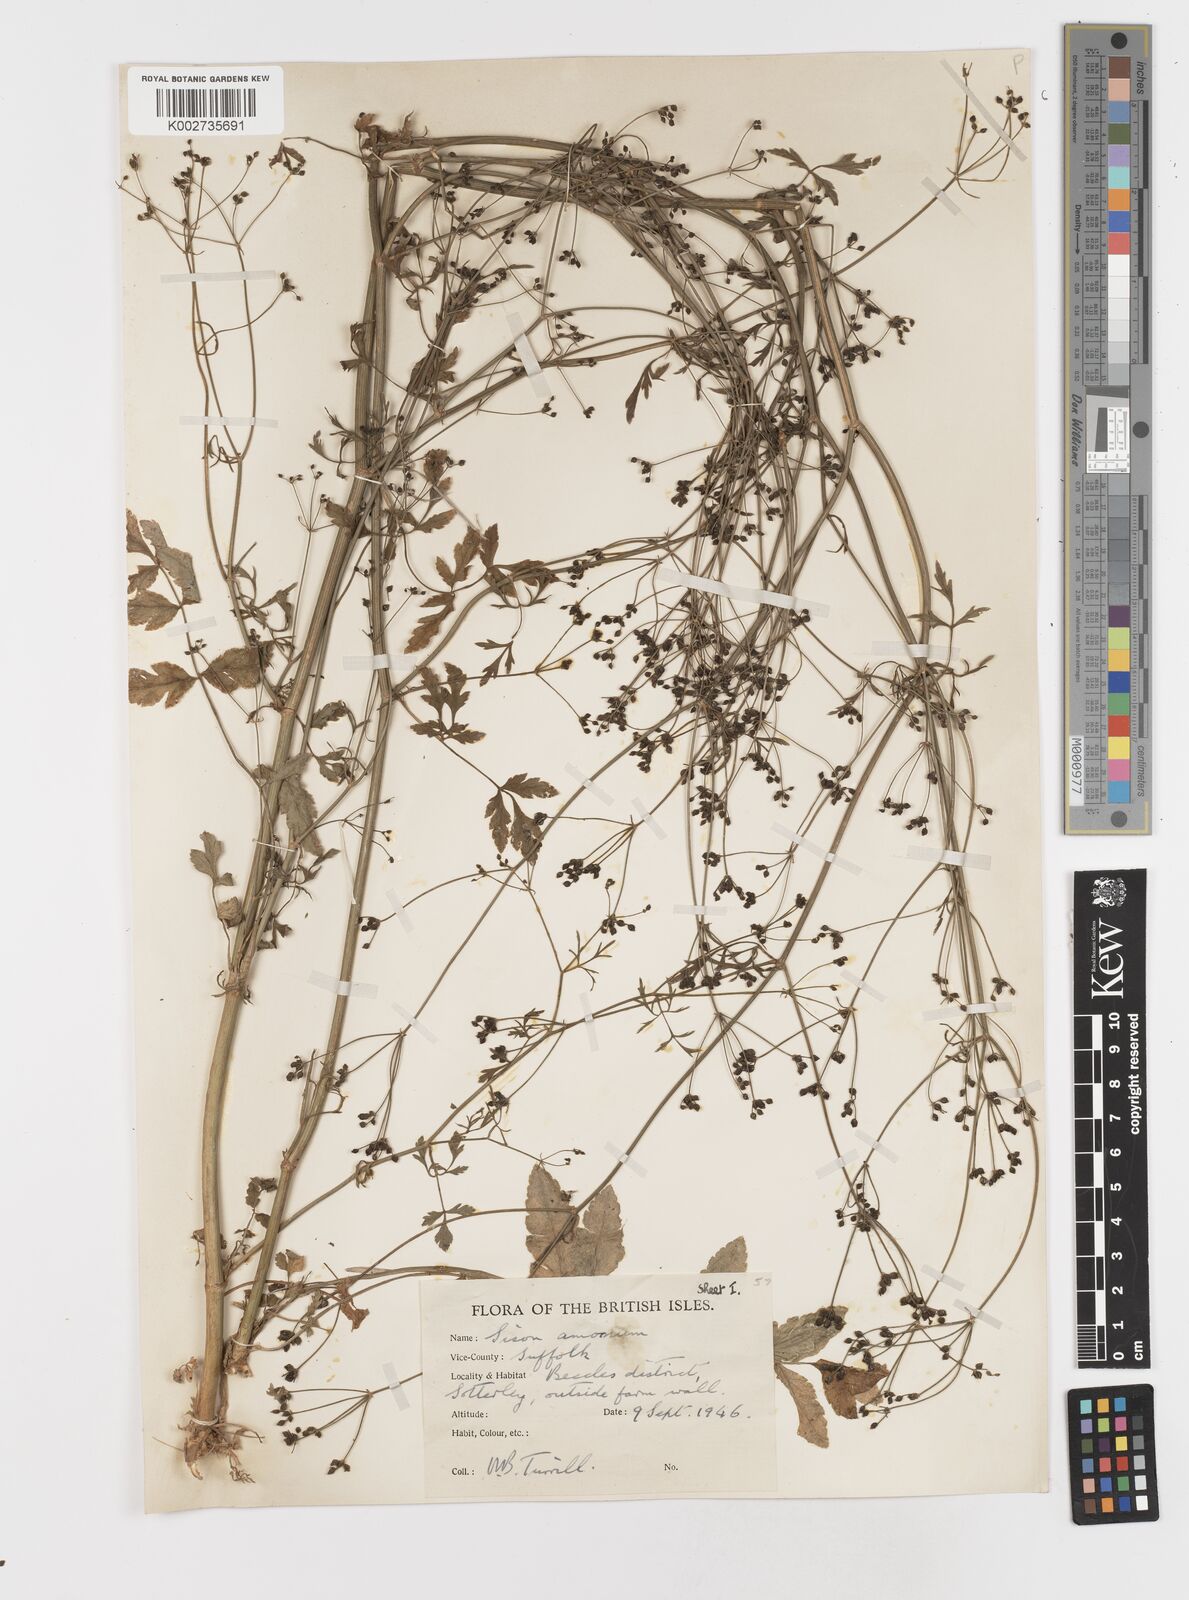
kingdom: Plantae
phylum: Tracheophyta
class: Magnoliopsida
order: Apiales
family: Apiaceae
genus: Sison
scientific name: Sison amomum
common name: Stone-parsley
